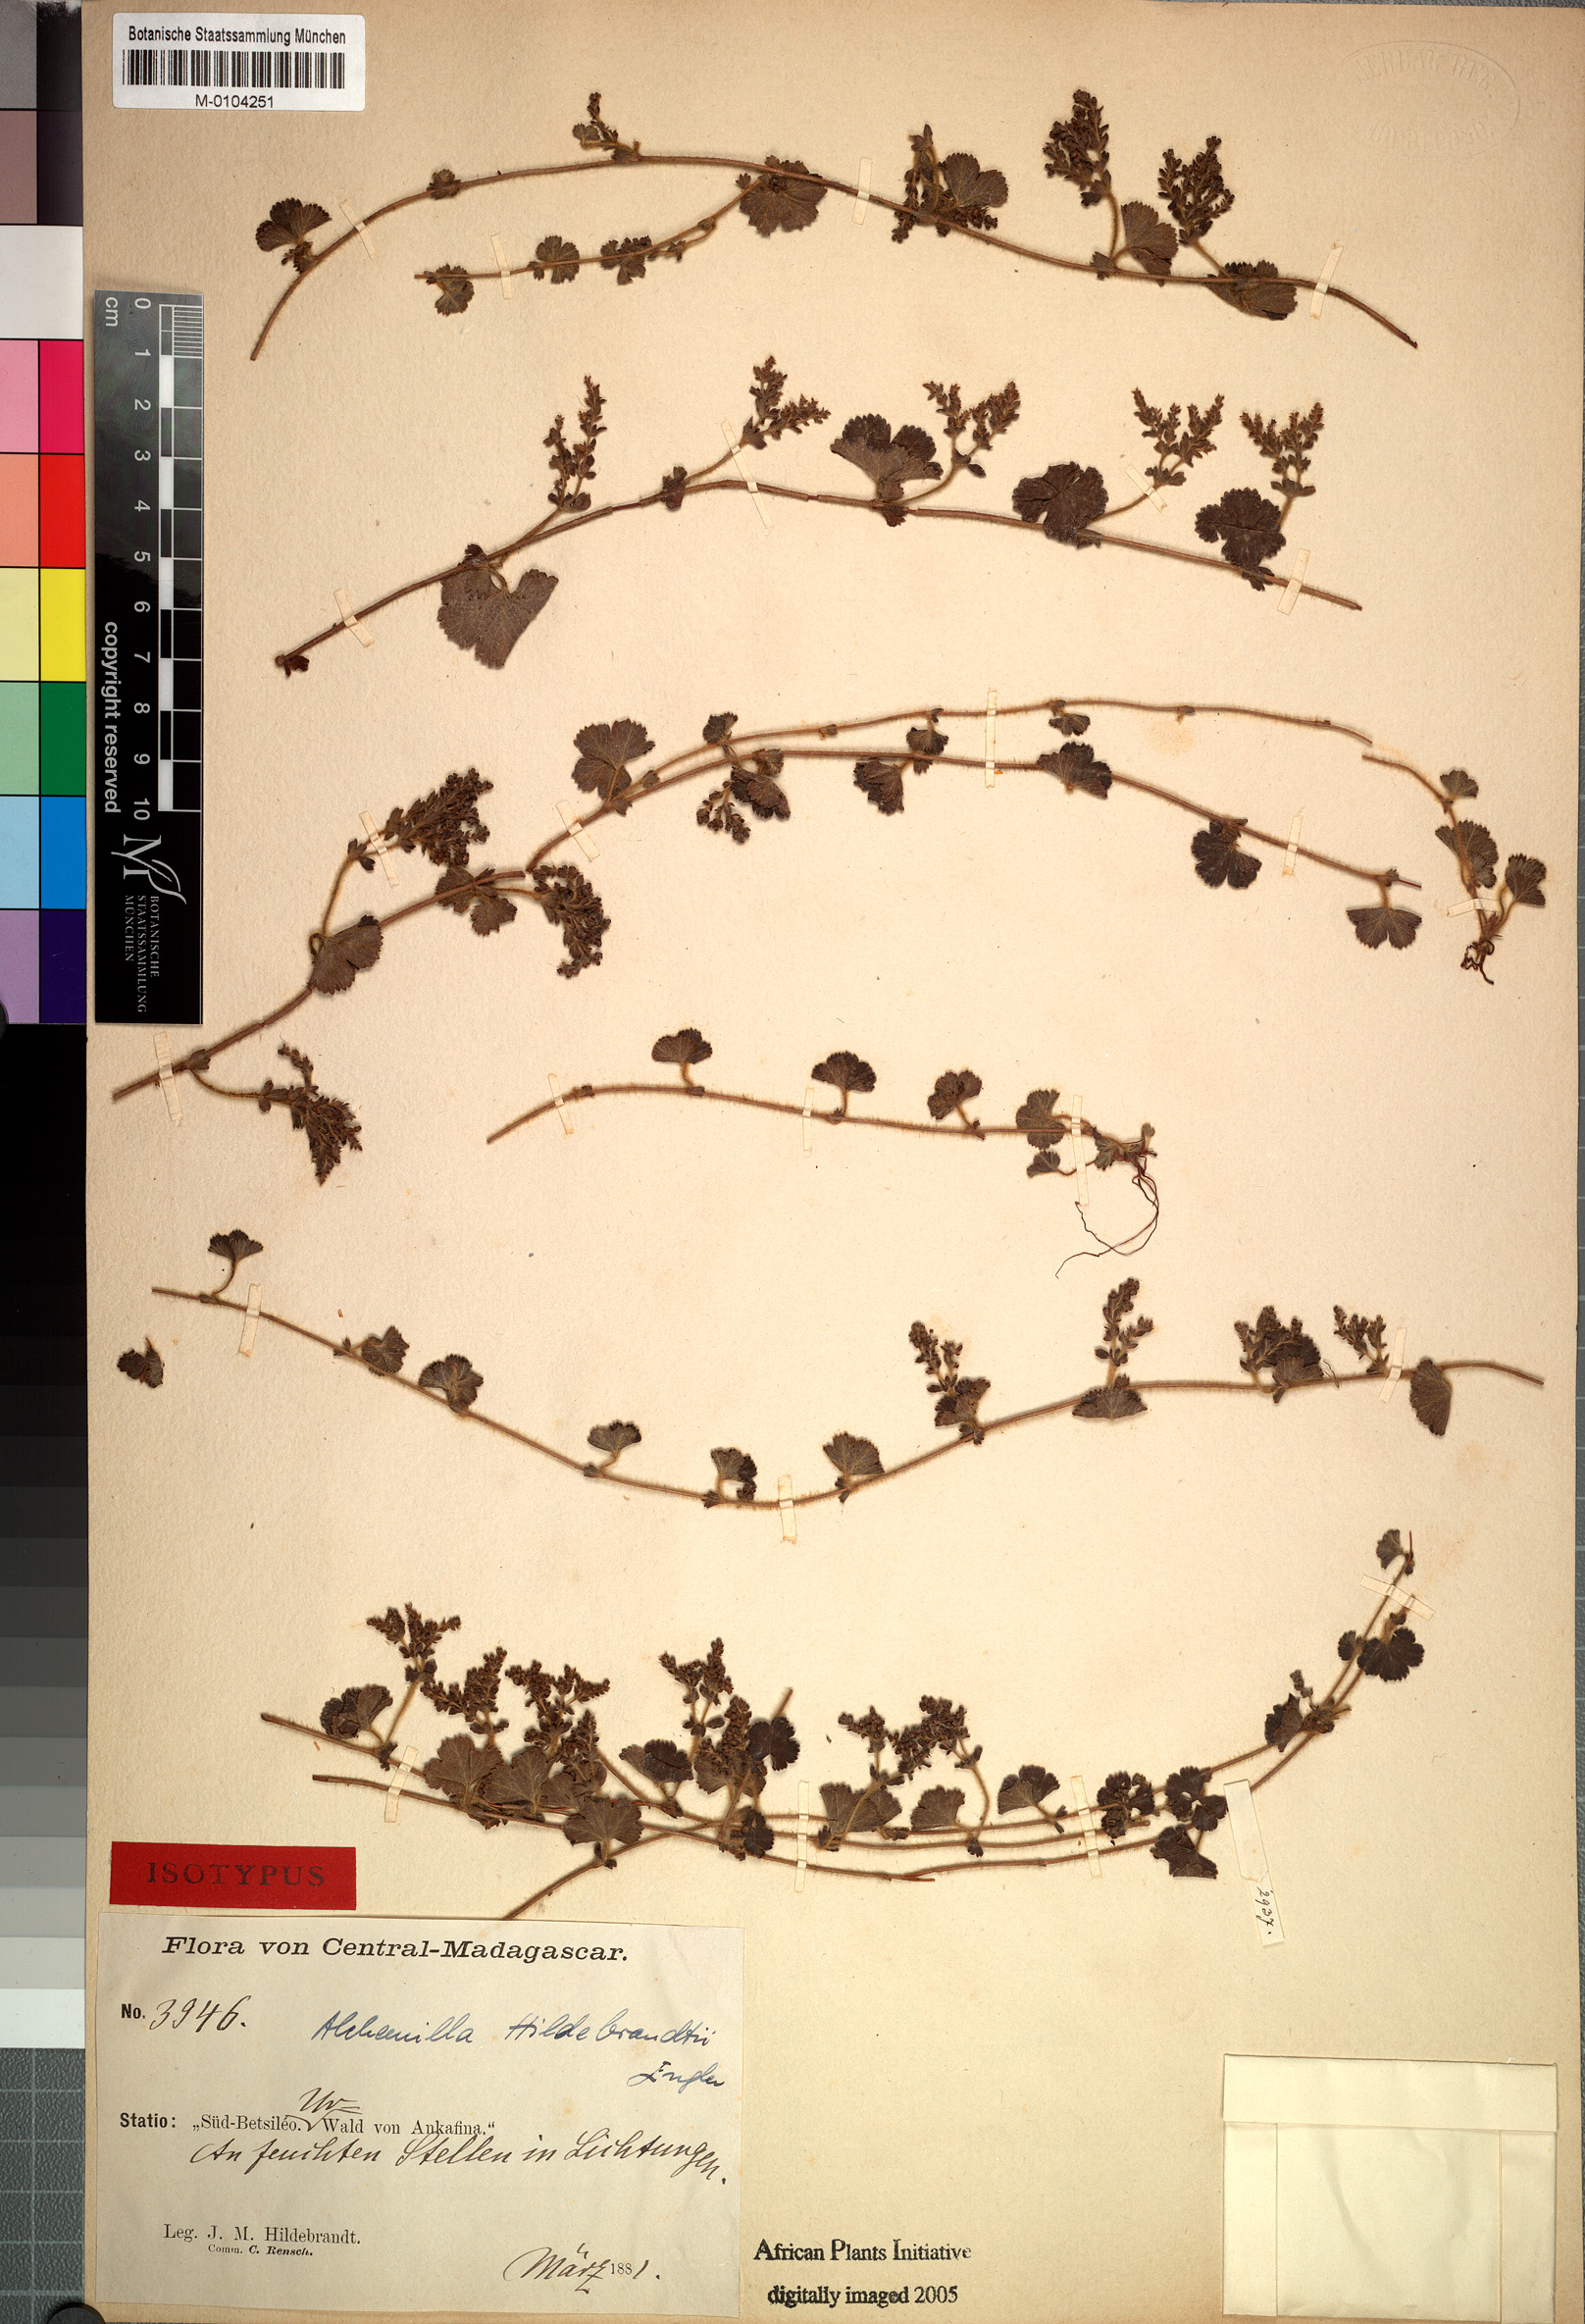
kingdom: Plantae
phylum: Tracheophyta
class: Magnoliopsida
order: Rosales
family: Rosaceae
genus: Alchemilla
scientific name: Alchemilla hildebrandtii
